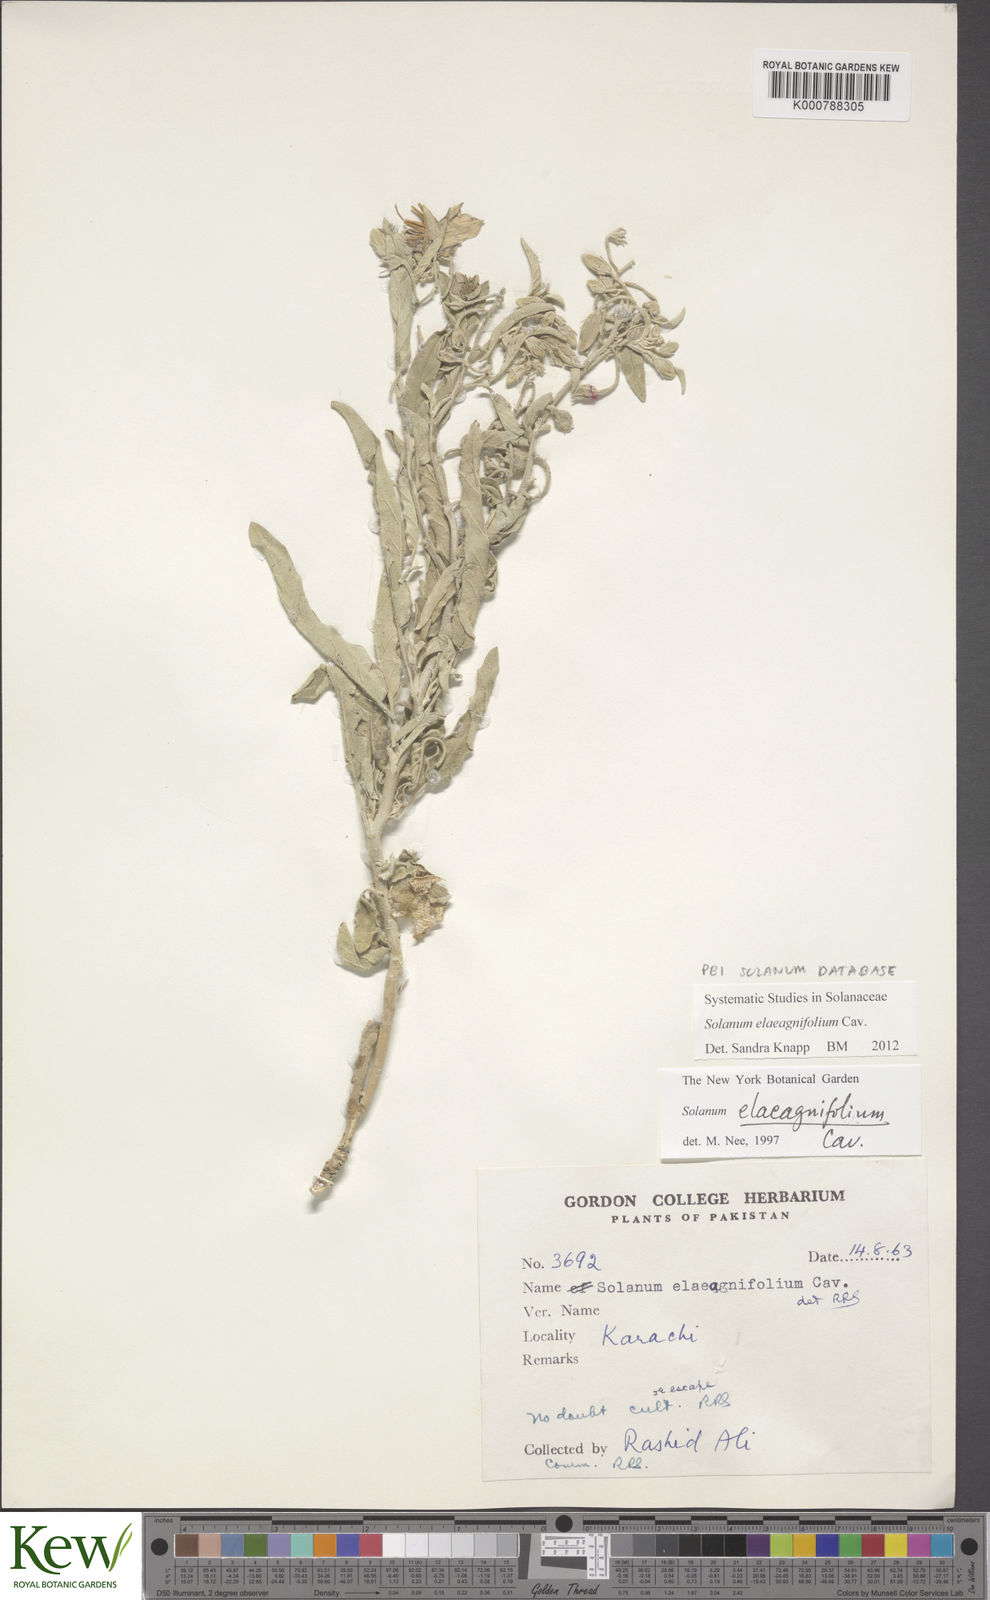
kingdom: Plantae
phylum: Tracheophyta
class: Magnoliopsida
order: Solanales
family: Solanaceae
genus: Solanum
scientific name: Solanum elaeagnifolium
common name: Silverleaf nightshade
